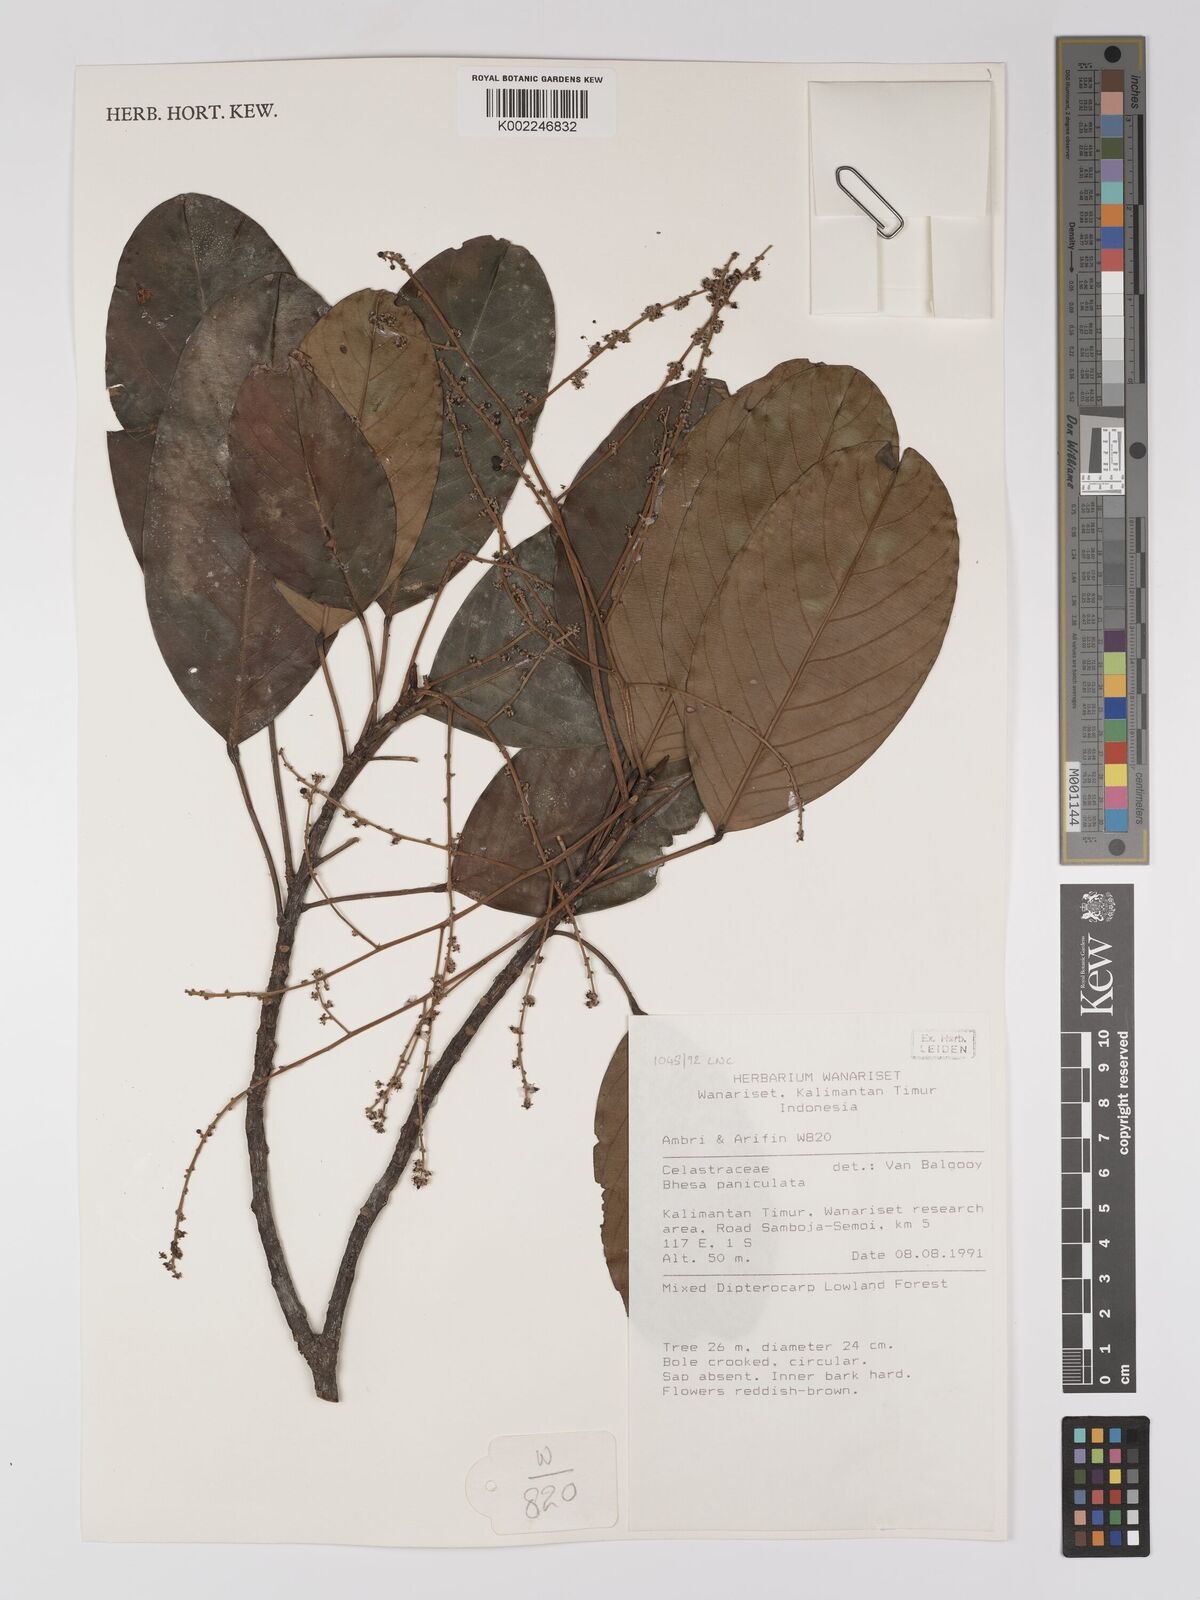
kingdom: Plantae
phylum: Tracheophyta
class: Magnoliopsida
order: Malpighiales
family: Centroplacaceae
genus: Bhesa
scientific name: Bhesa paniculata
